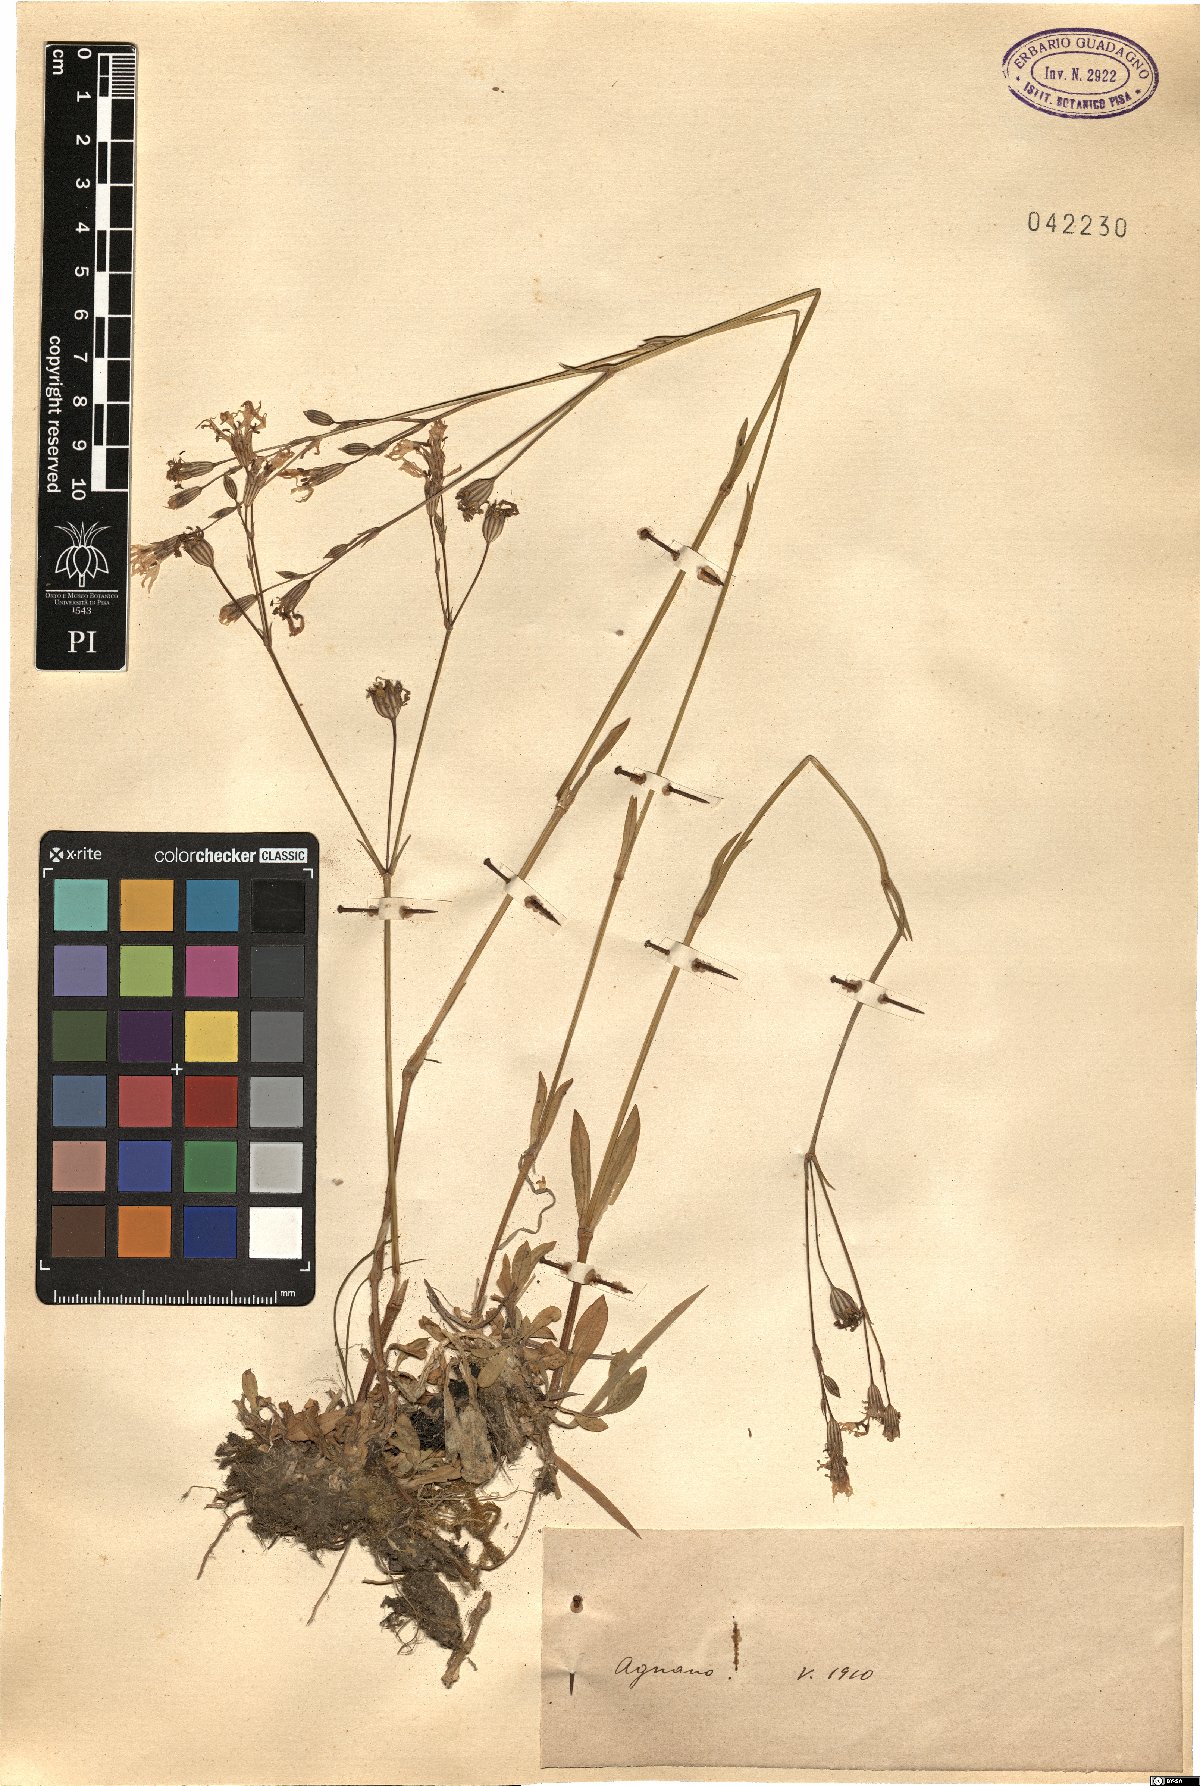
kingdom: Plantae
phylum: Tracheophyta
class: Magnoliopsida
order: Caryophyllales
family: Caryophyllaceae
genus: Silene
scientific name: Silene
